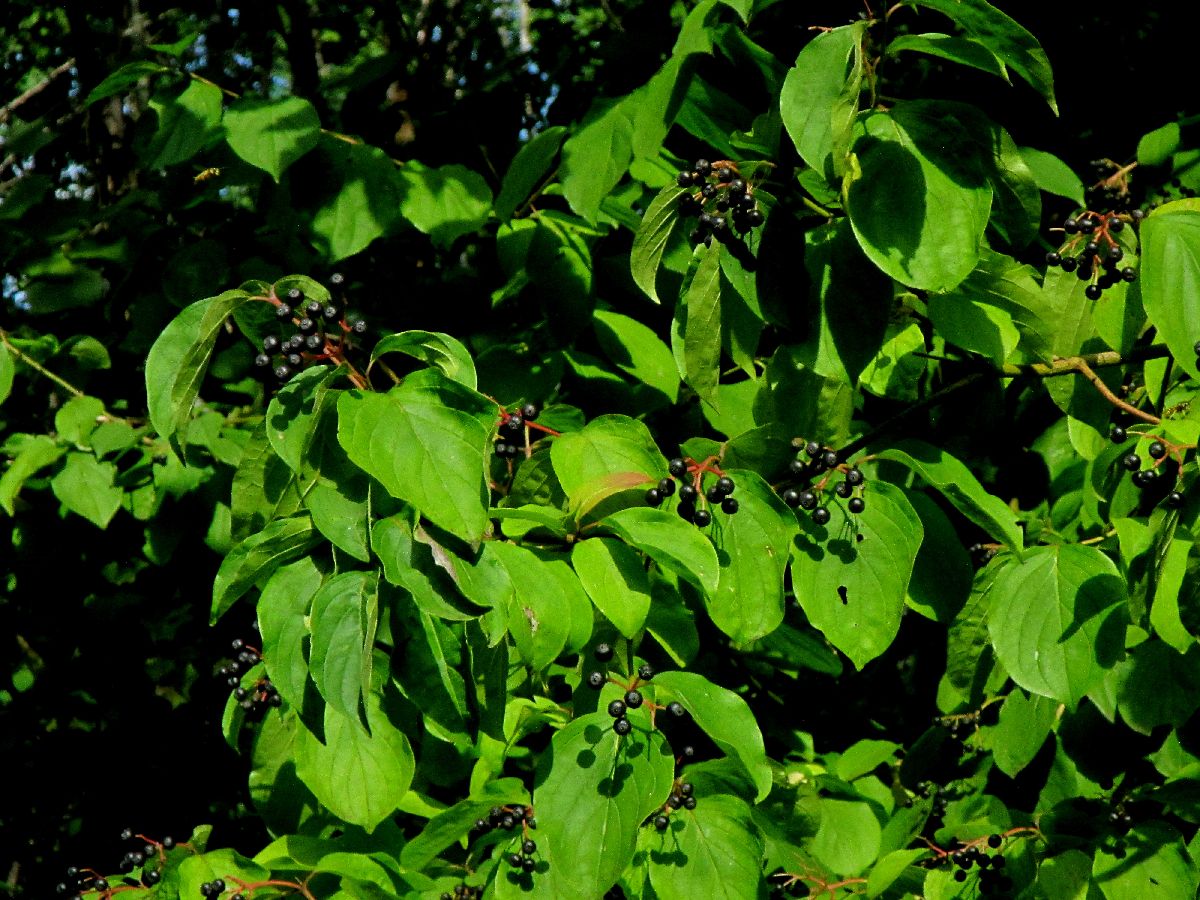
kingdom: Plantae
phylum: Tracheophyta
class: Magnoliopsida
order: Rosales
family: Rosaceae
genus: Cotoneaster
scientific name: Cotoneaster integerrimus
